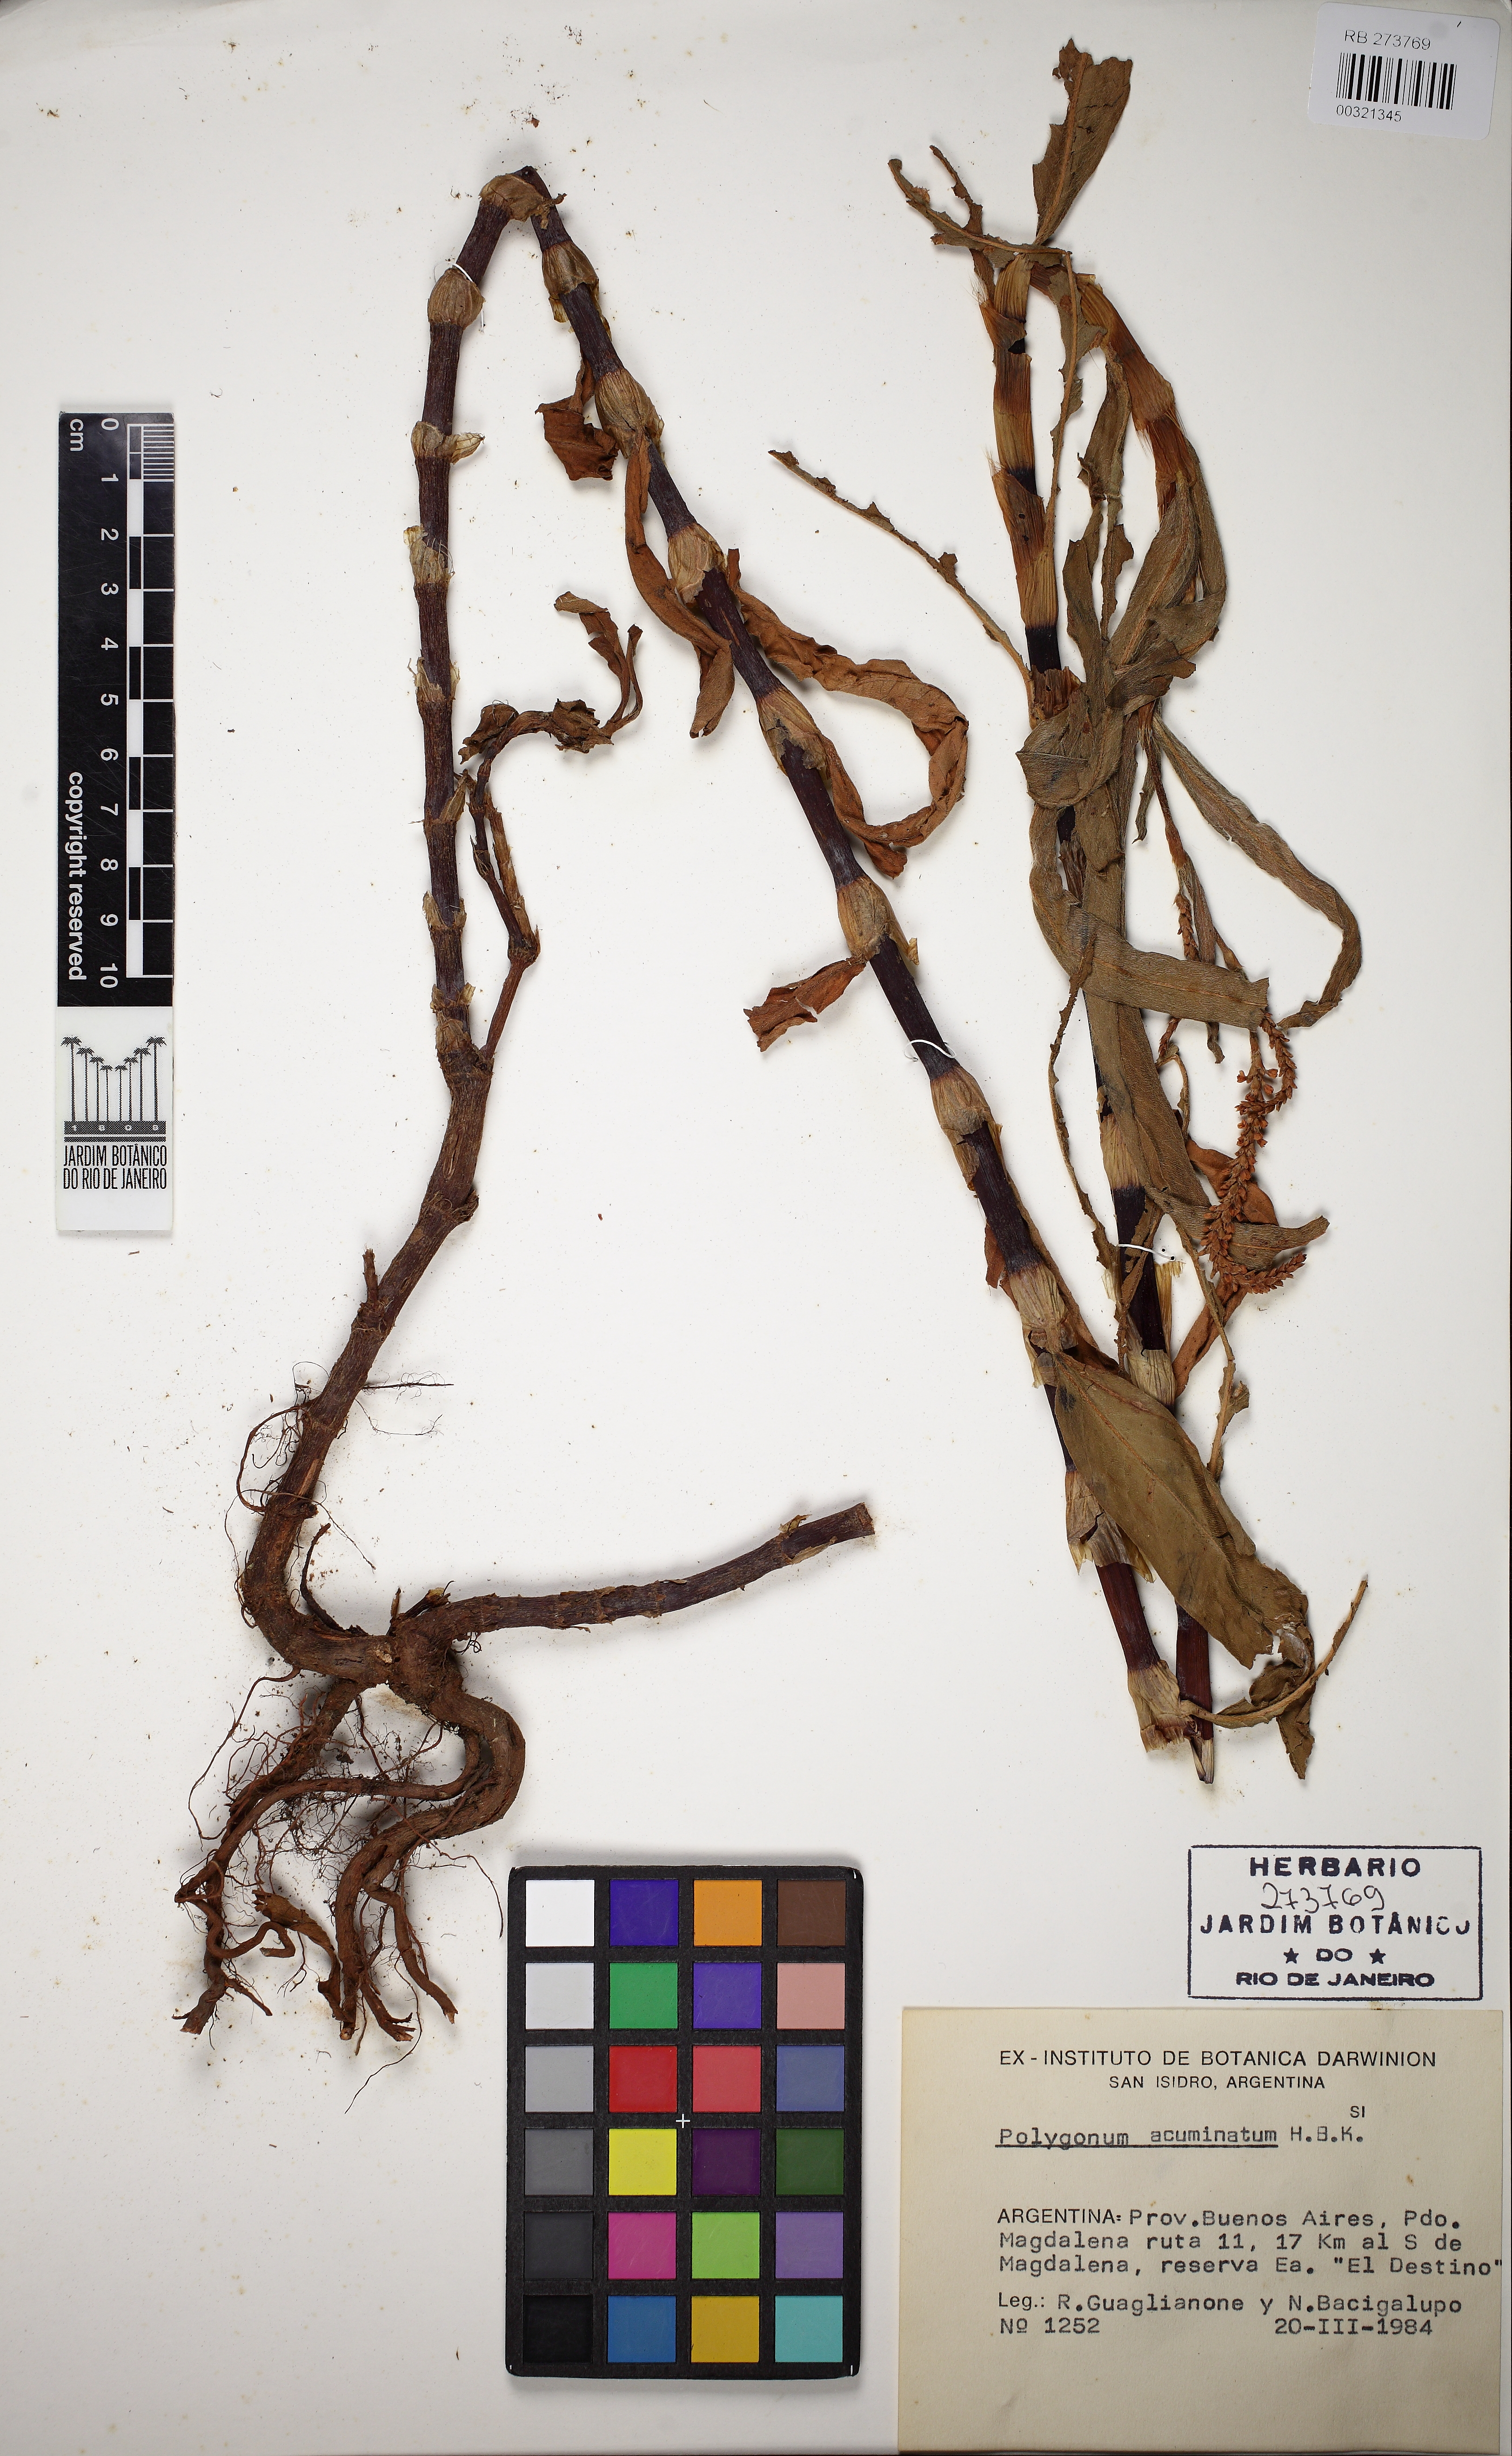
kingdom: Plantae
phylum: Tracheophyta
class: Magnoliopsida
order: Caryophyllales
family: Polygonaceae
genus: Persicaria
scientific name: Persicaria acuminata
